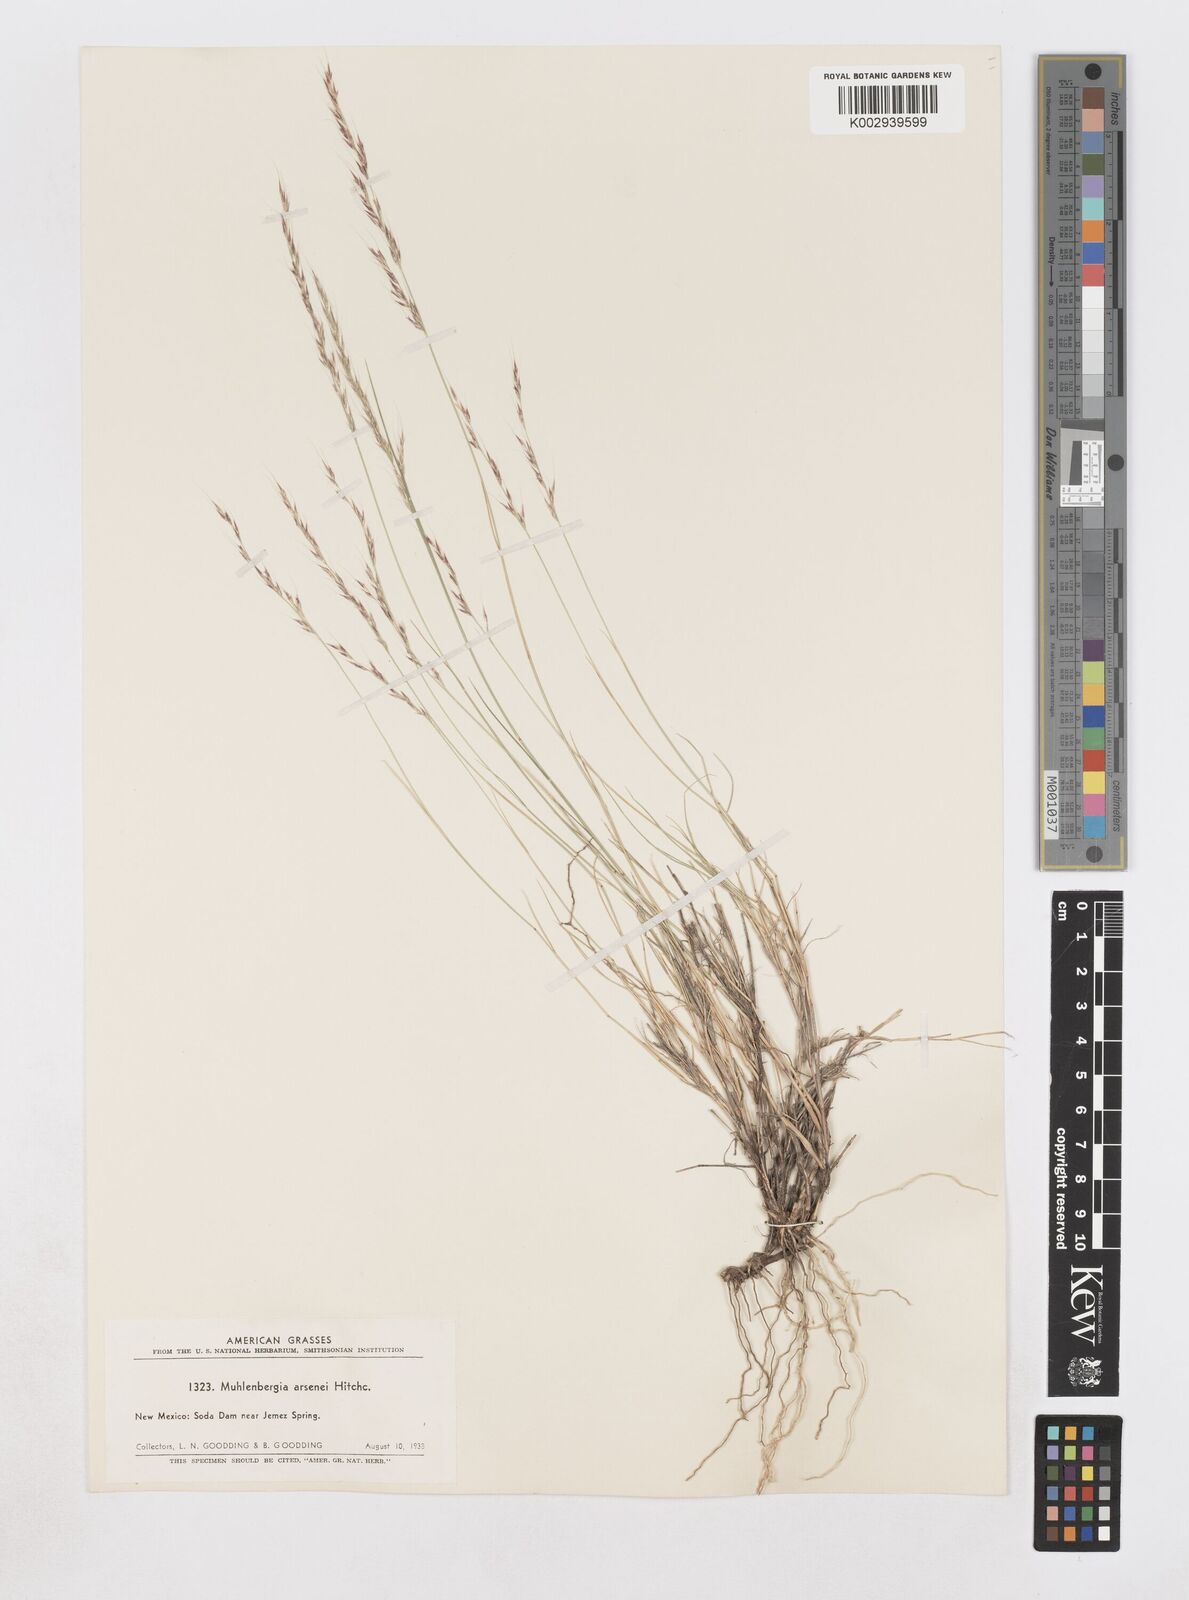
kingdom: Plantae
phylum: Tracheophyta
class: Liliopsida
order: Poales
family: Poaceae
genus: Muhlenbergia
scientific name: Muhlenbergia arsenei
